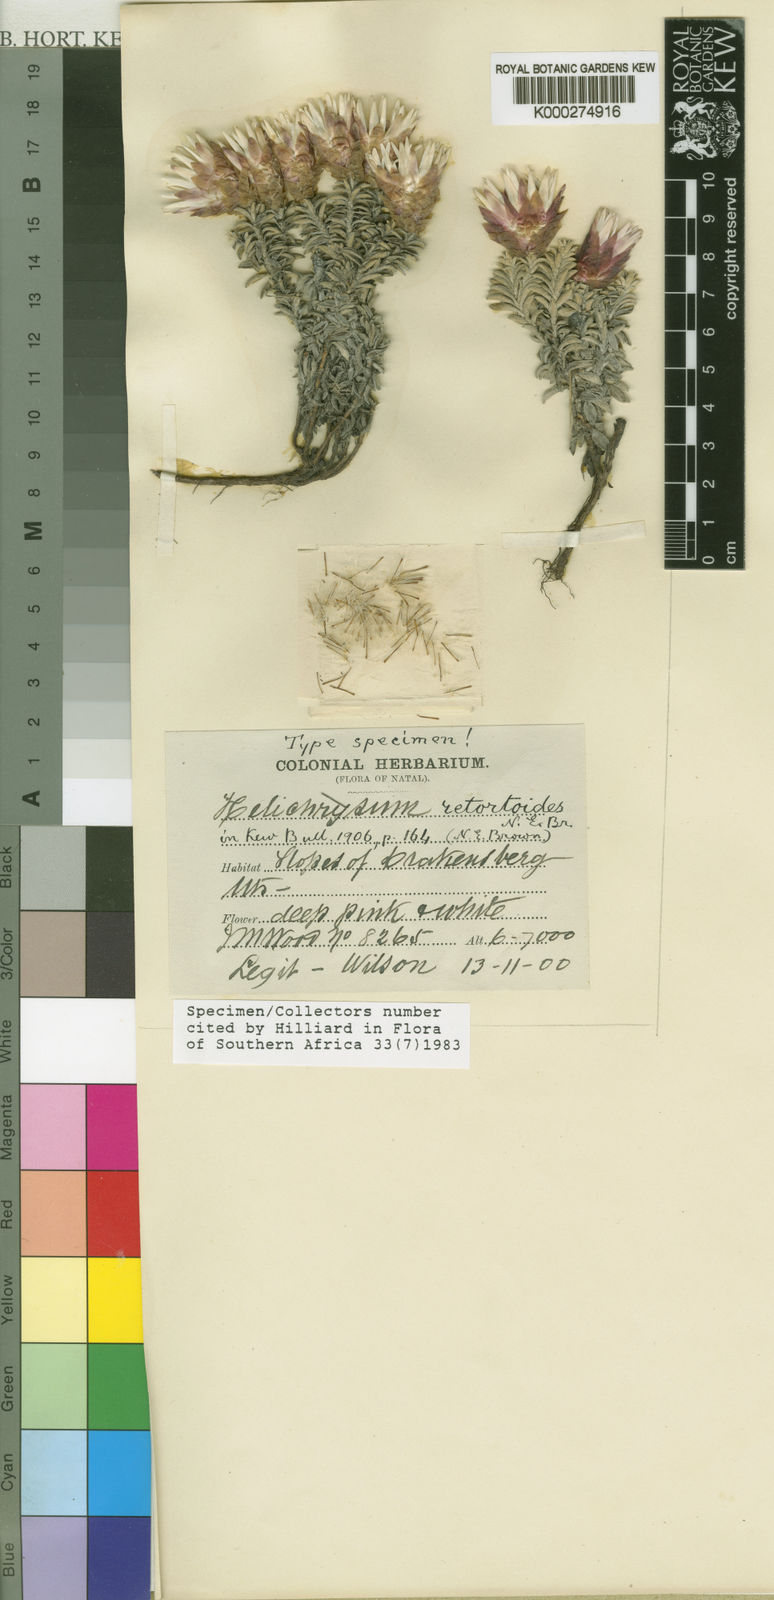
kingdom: Plantae
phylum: Tracheophyta
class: Magnoliopsida
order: Asterales
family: Asteraceae
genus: Helichrysum
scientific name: Helichrysum retortoides
